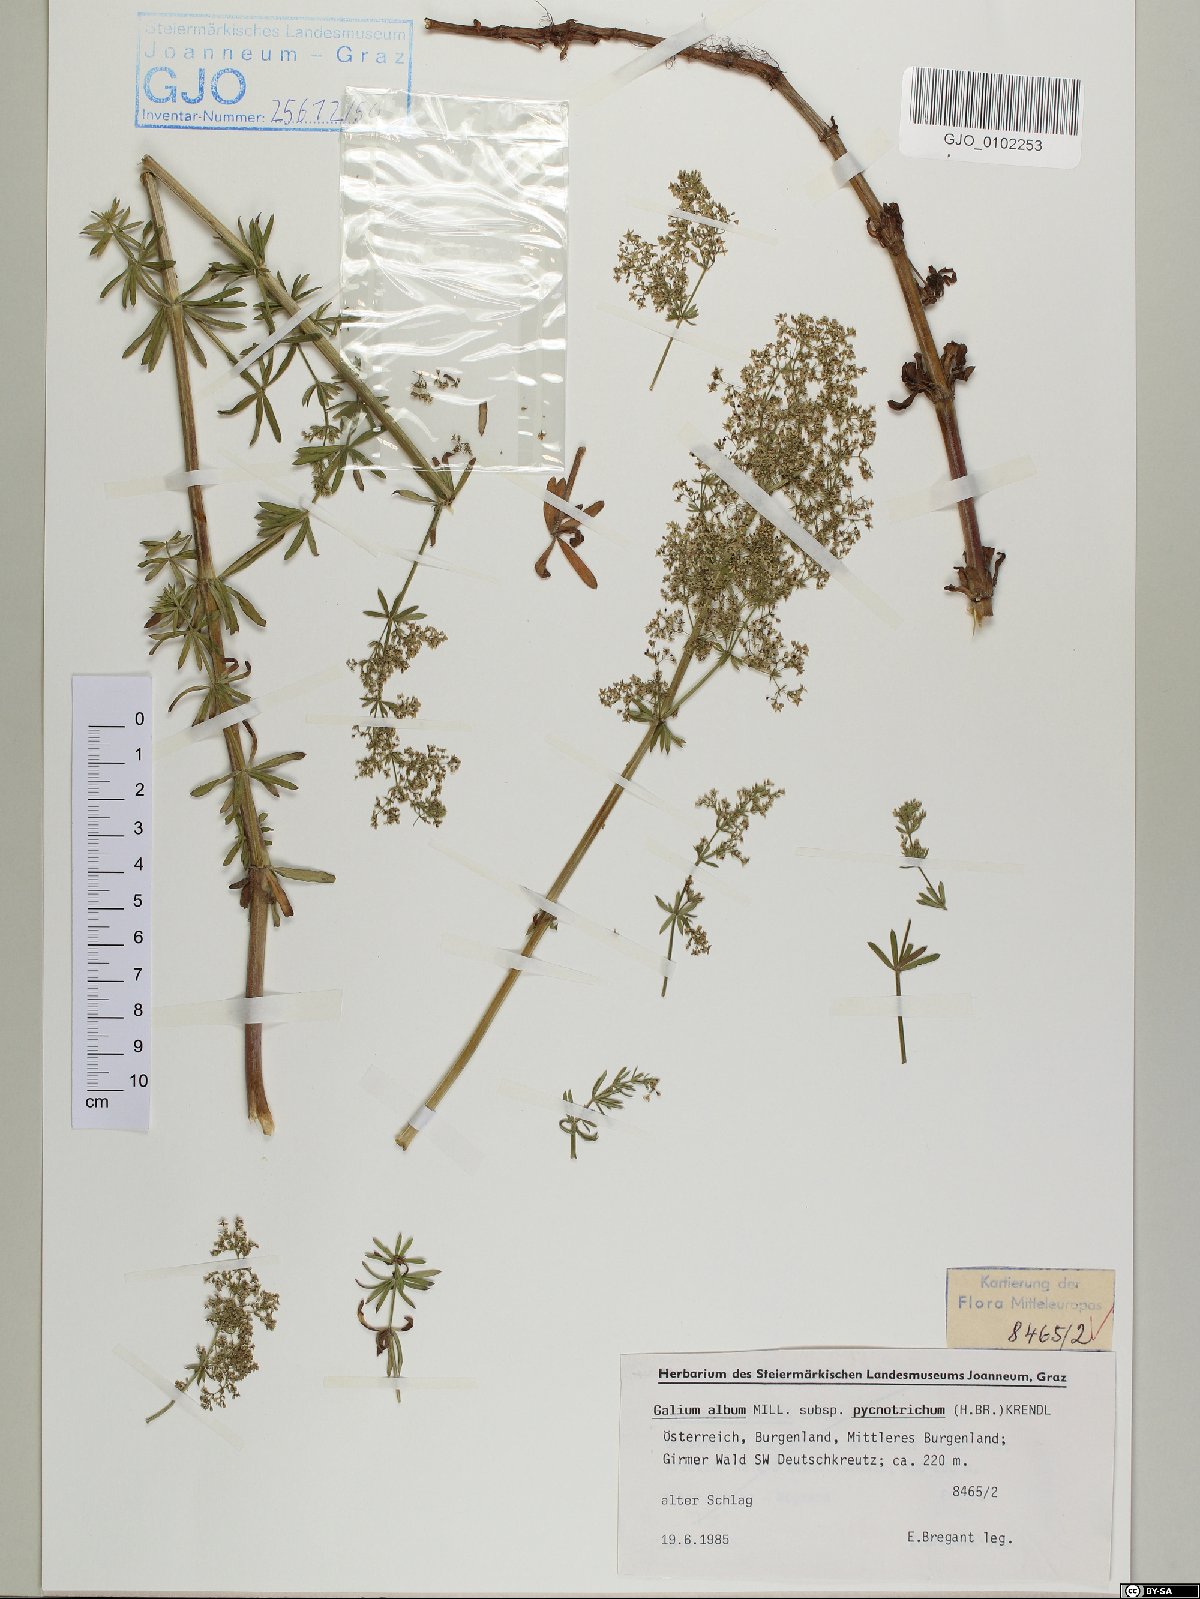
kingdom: Plantae
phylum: Tracheophyta
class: Magnoliopsida
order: Gentianales
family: Rubiaceae
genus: Galium
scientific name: Galium album
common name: White bedstraw
